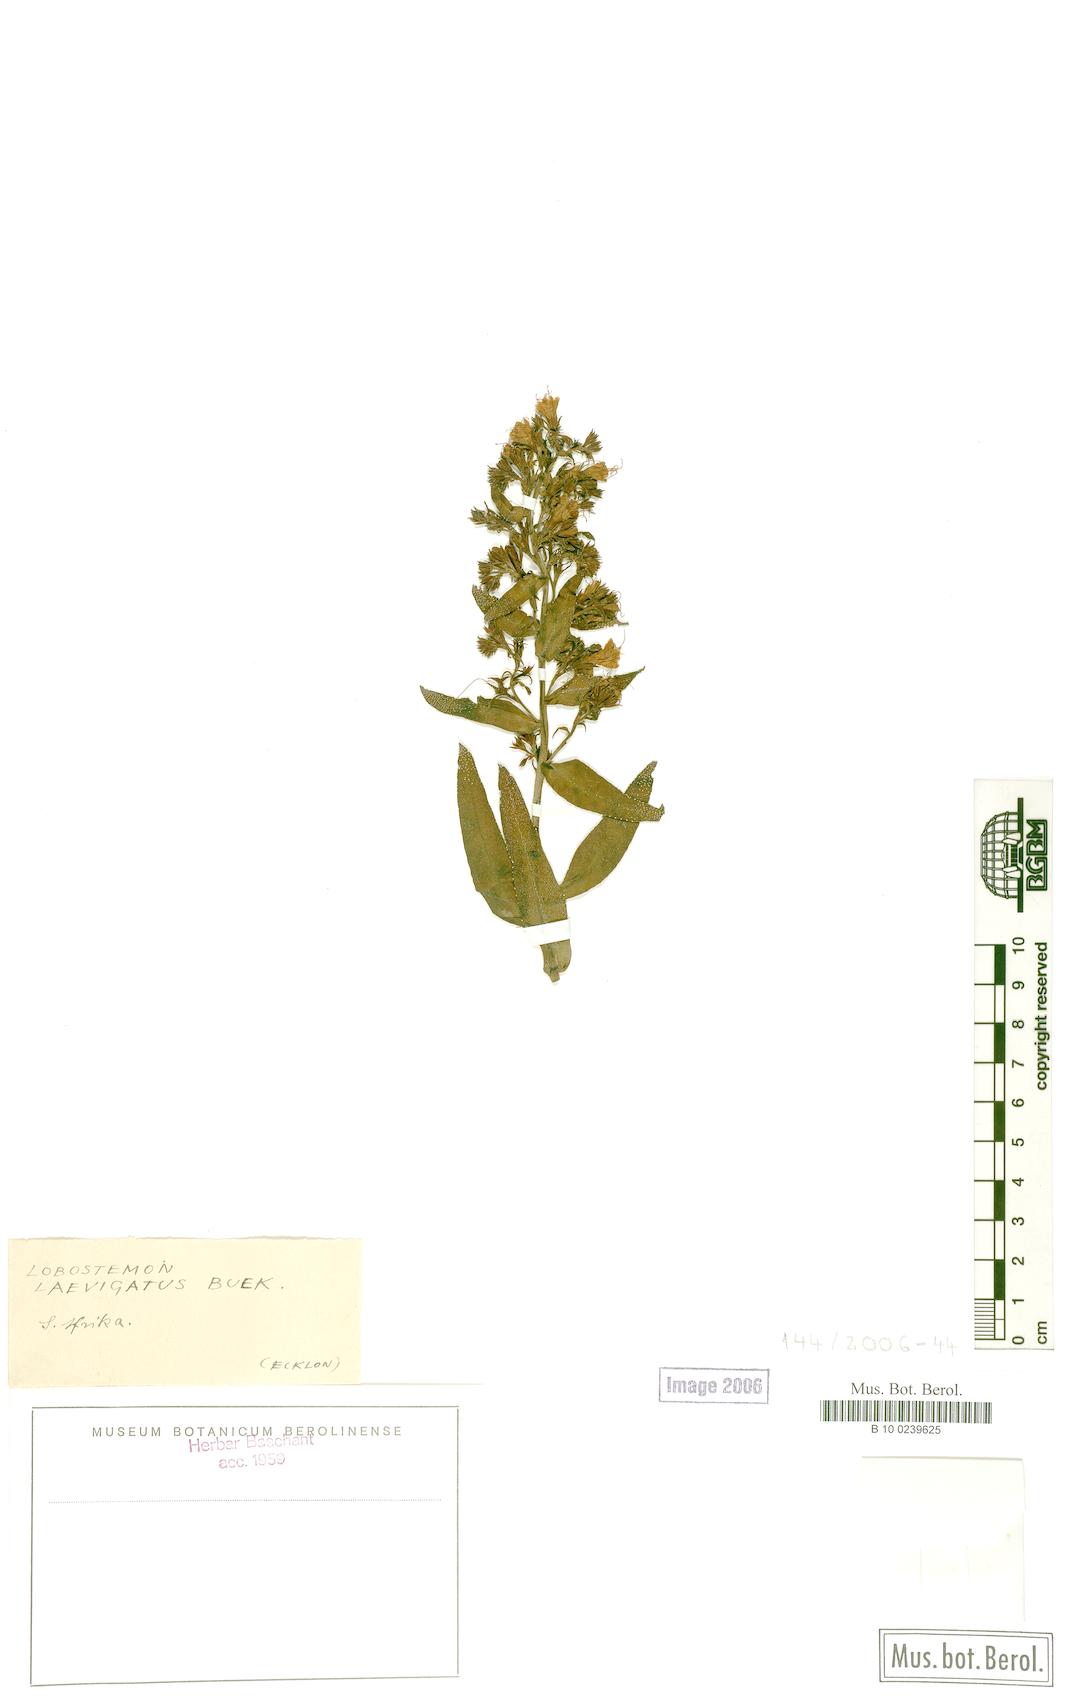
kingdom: Plantae
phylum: Tracheophyta
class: Magnoliopsida
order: Boraginales
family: Boraginaceae
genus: Lobostemon
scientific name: Lobostemon laevigatus
